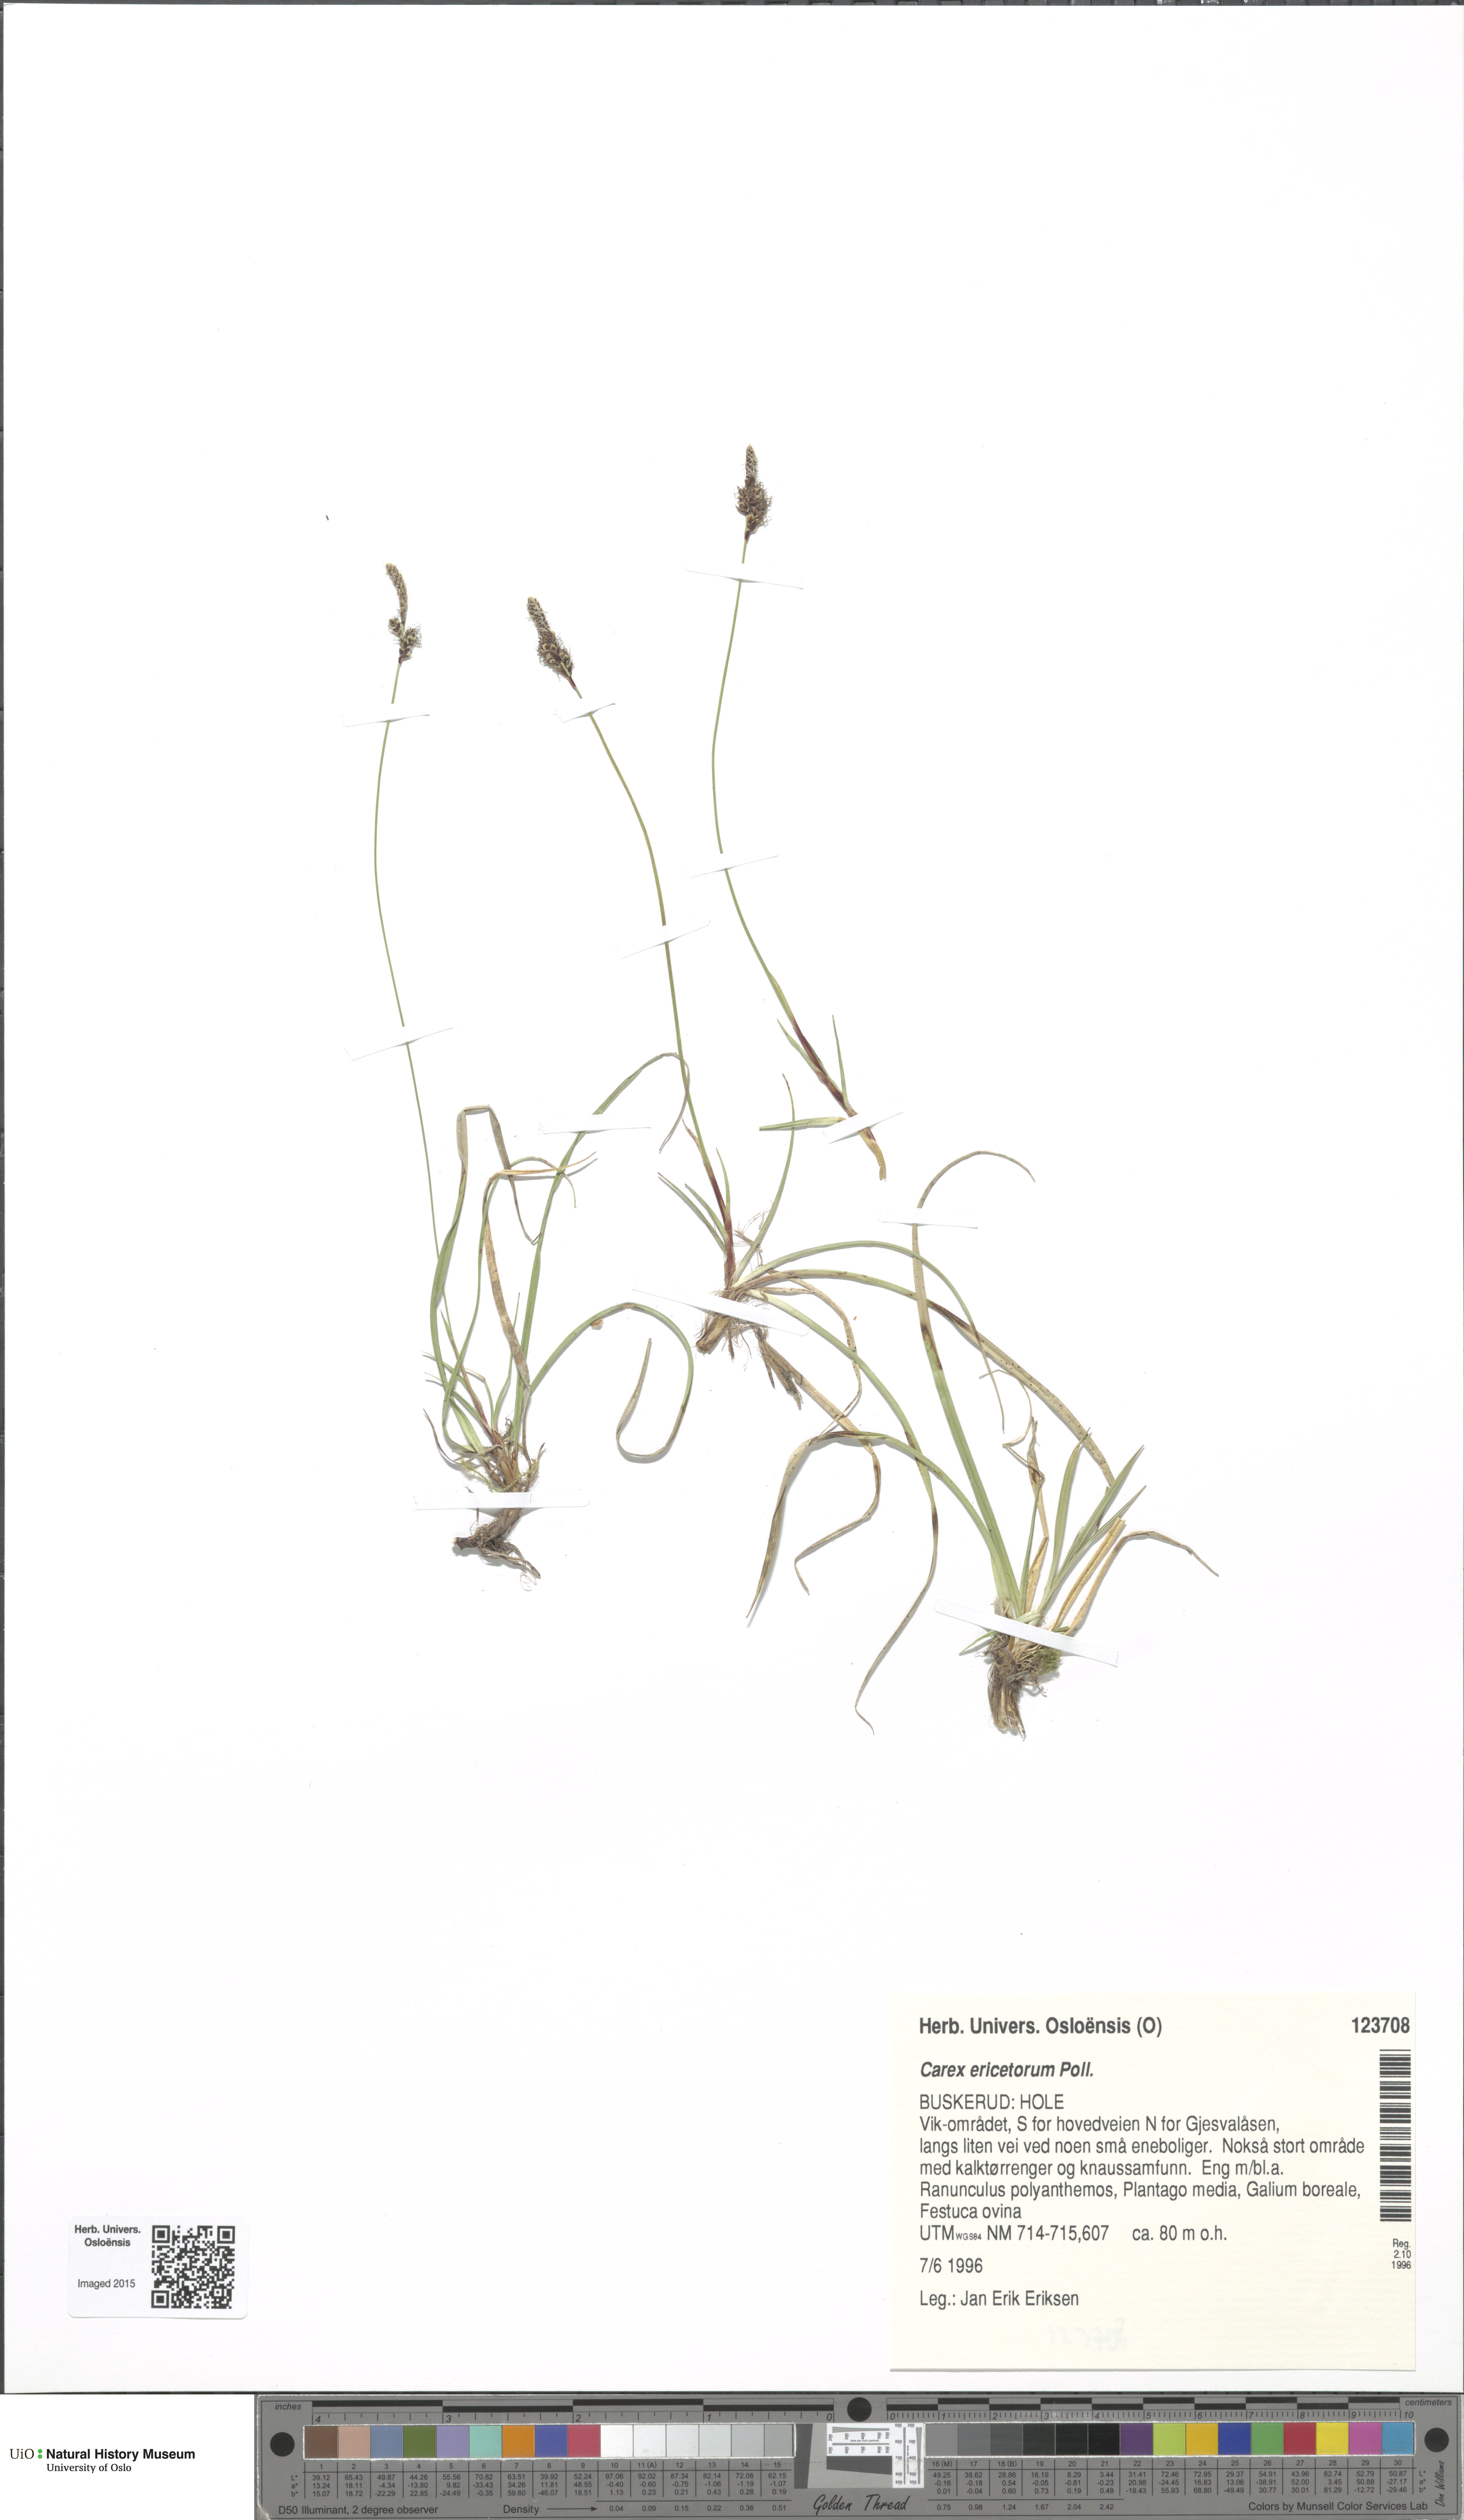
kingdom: Plantae
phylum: Tracheophyta
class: Liliopsida
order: Poales
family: Cyperaceae
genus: Carex
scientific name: Carex ericetorum
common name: Rare spring-sedge
